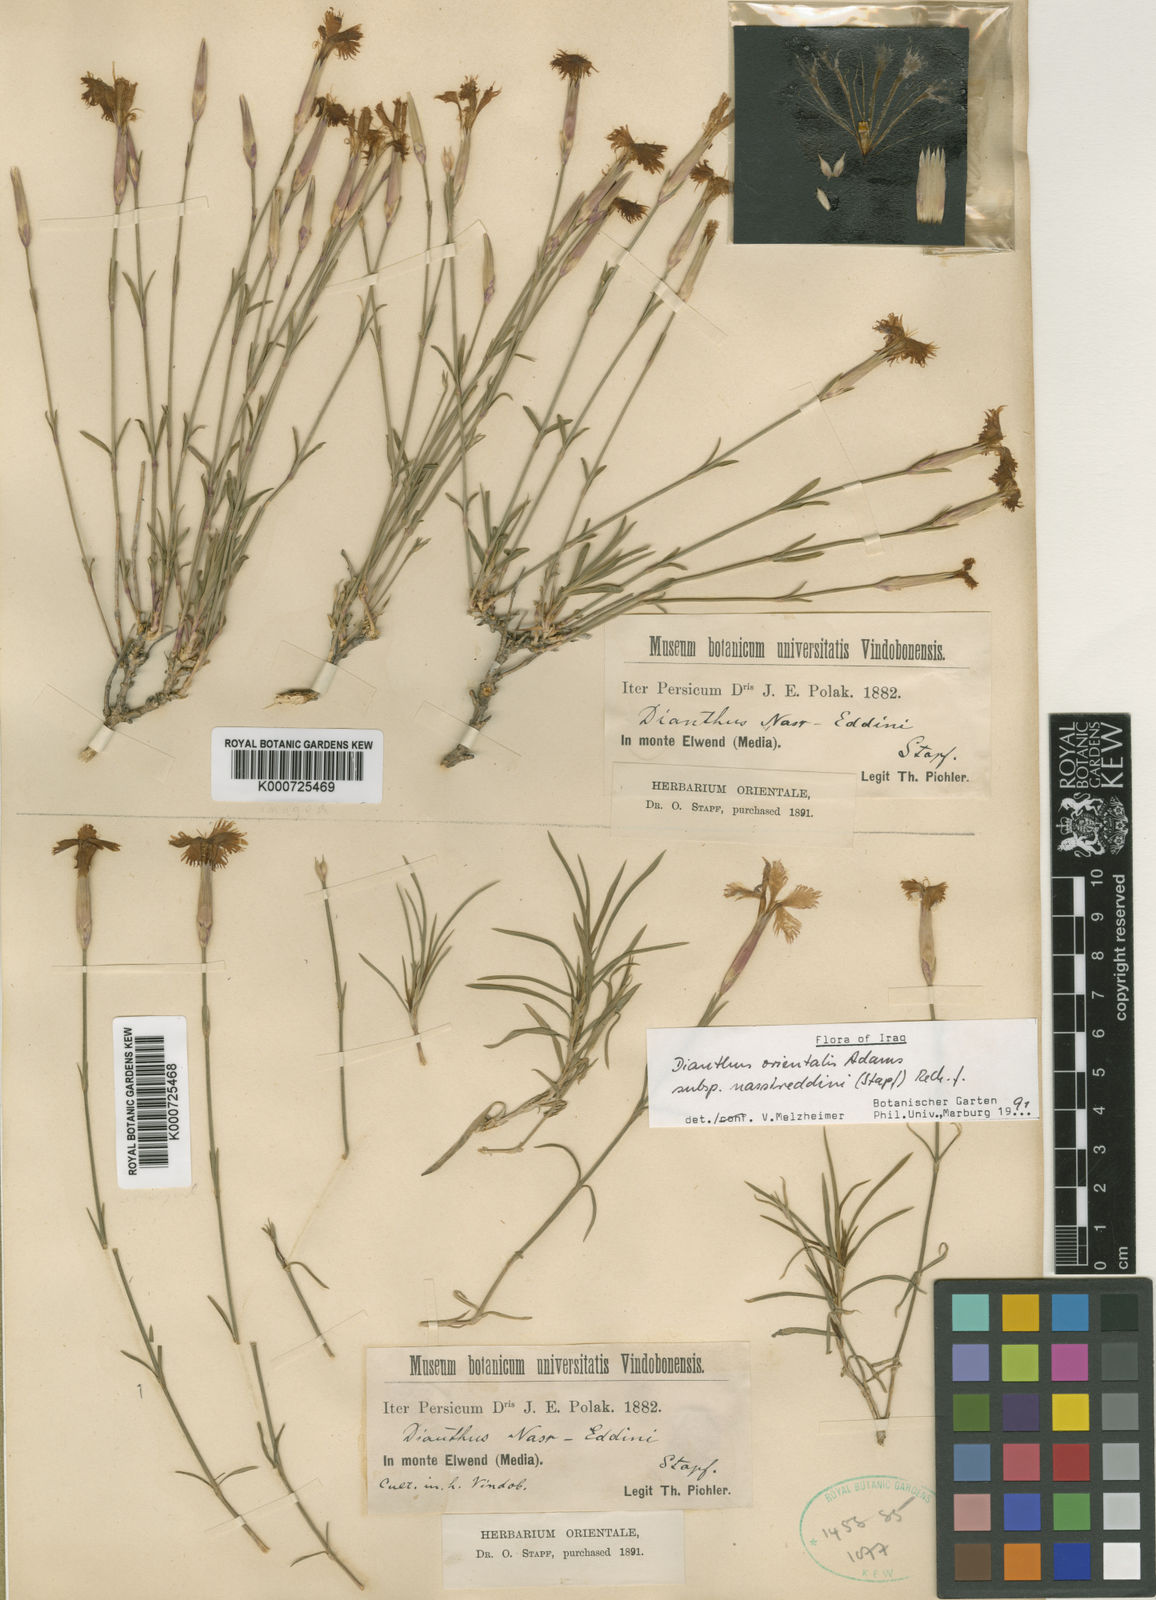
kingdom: Plantae
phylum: Tracheophyta
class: Magnoliopsida
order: Caryophyllales
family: Caryophyllaceae
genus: Dianthus
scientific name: Dianthus orientalis
